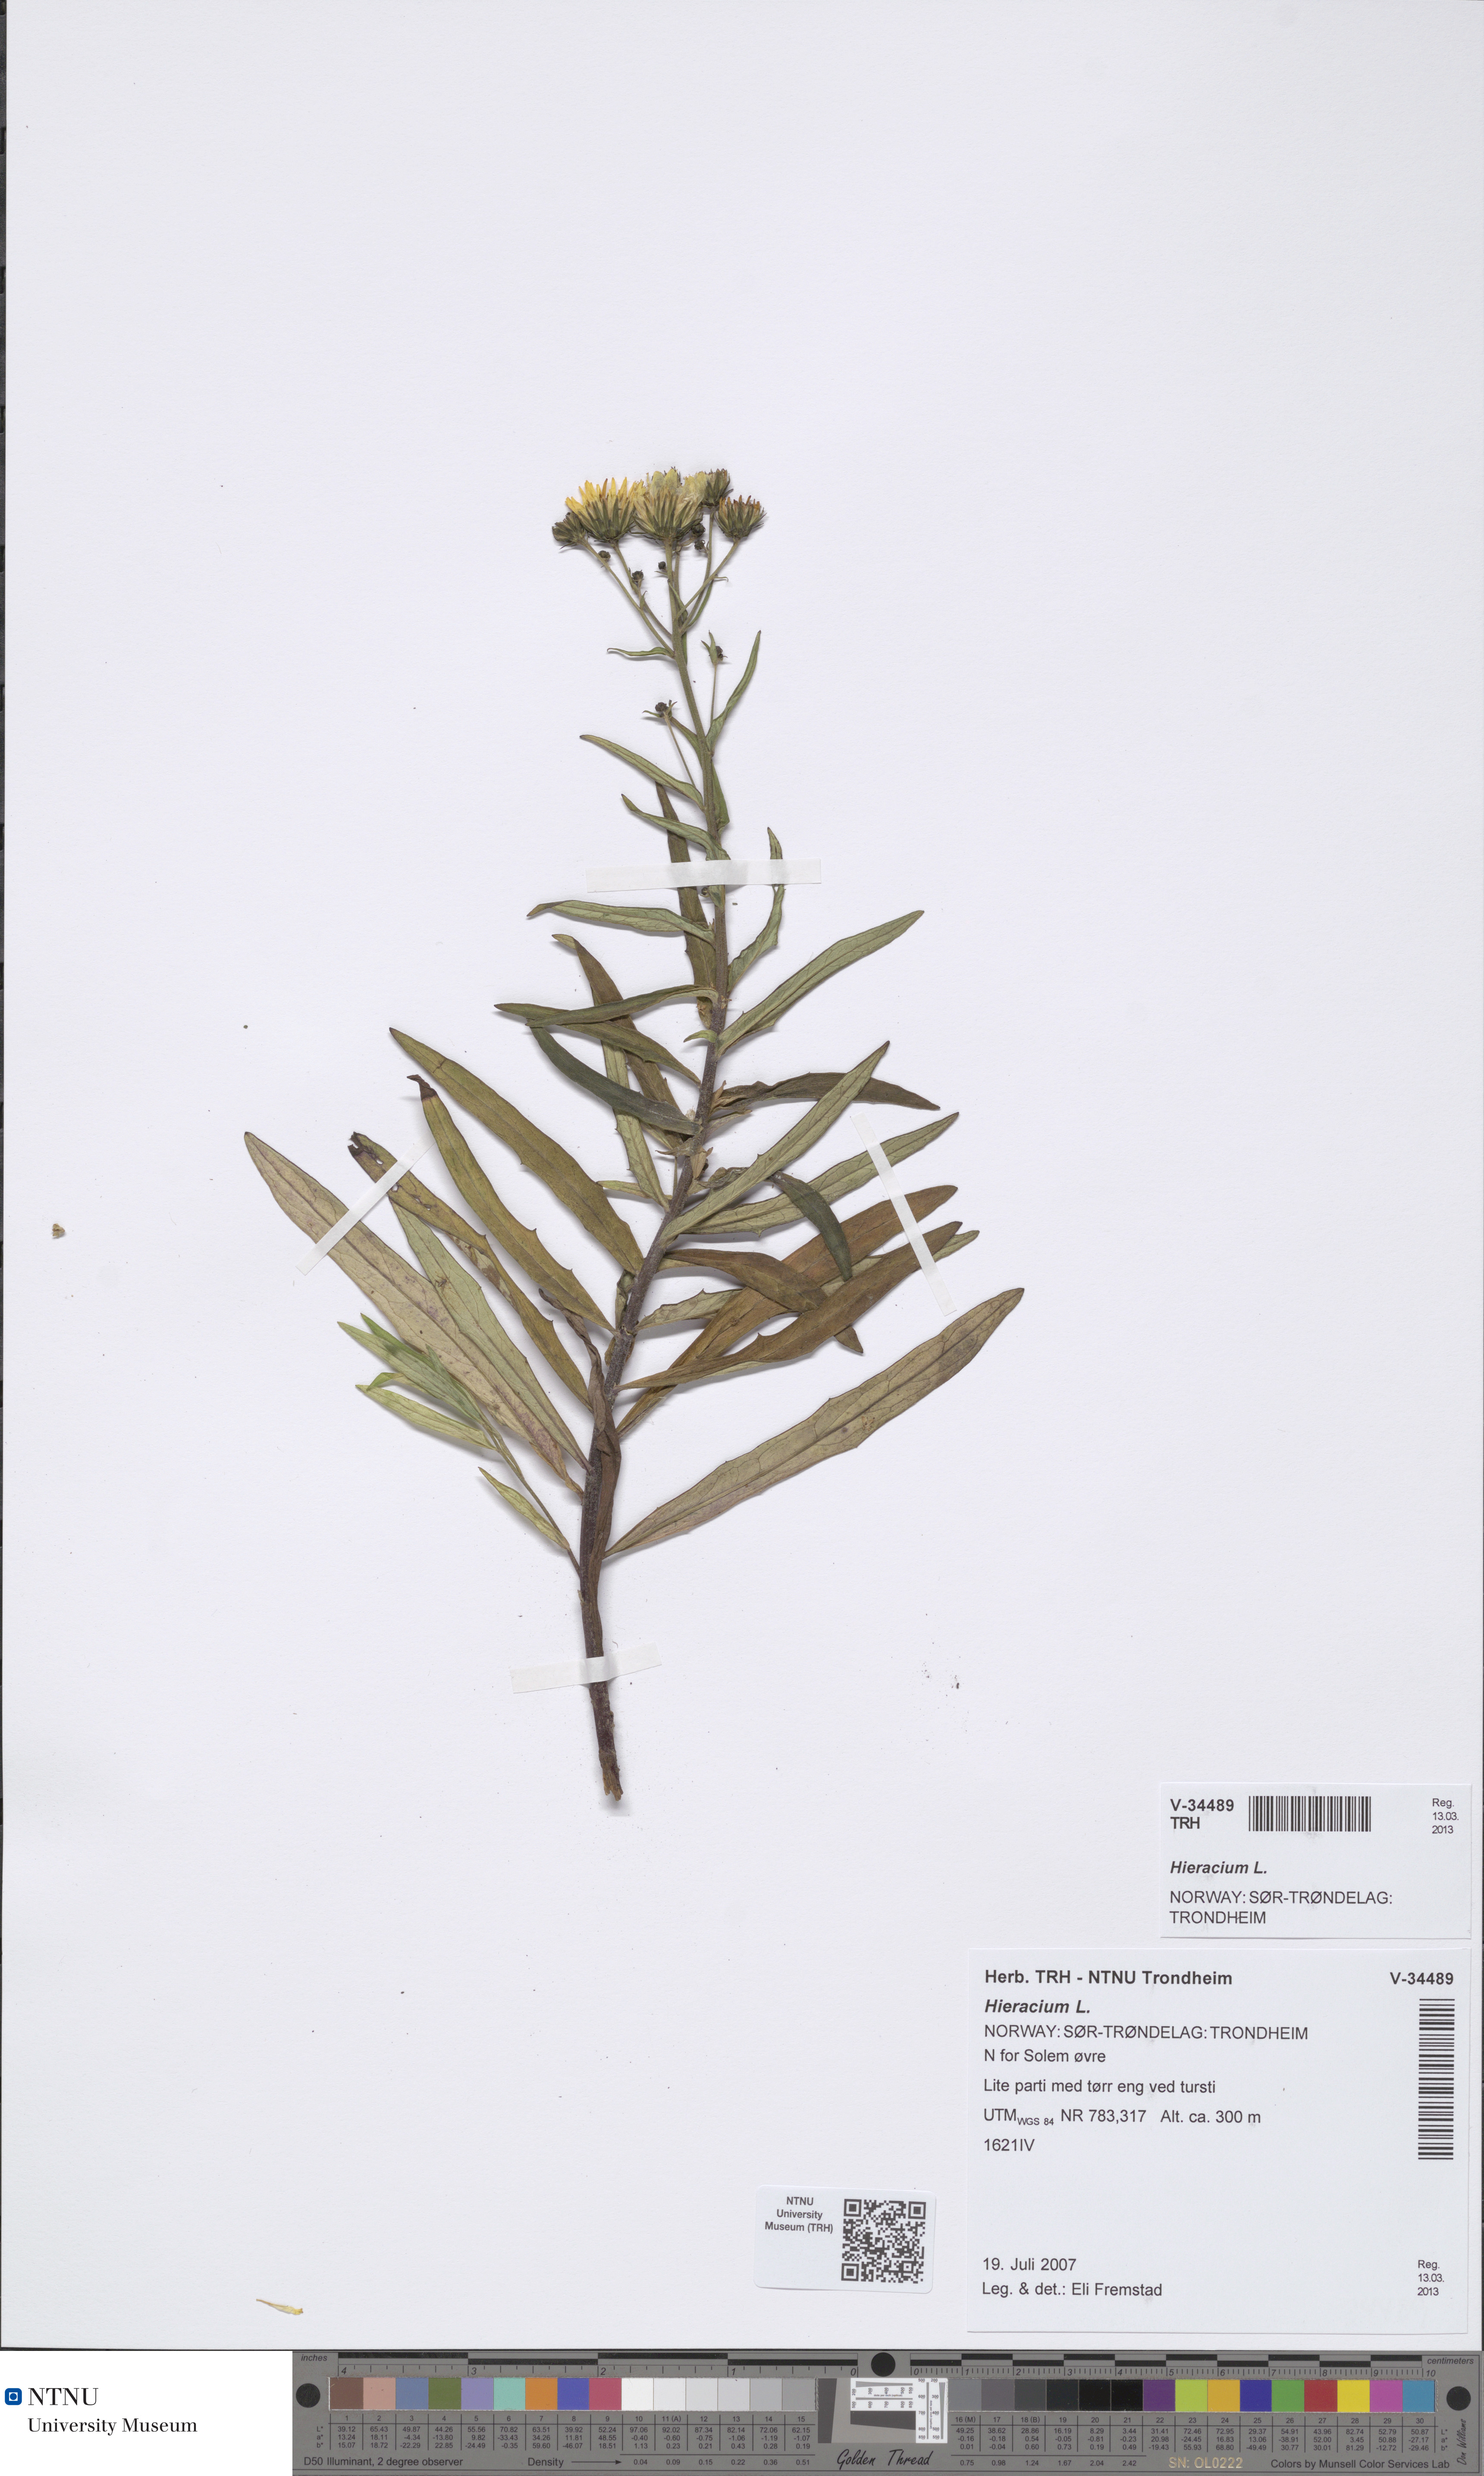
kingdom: Plantae
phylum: Tracheophyta
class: Magnoliopsida
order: Asterales
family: Asteraceae
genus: Hieracium
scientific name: Hieracium
